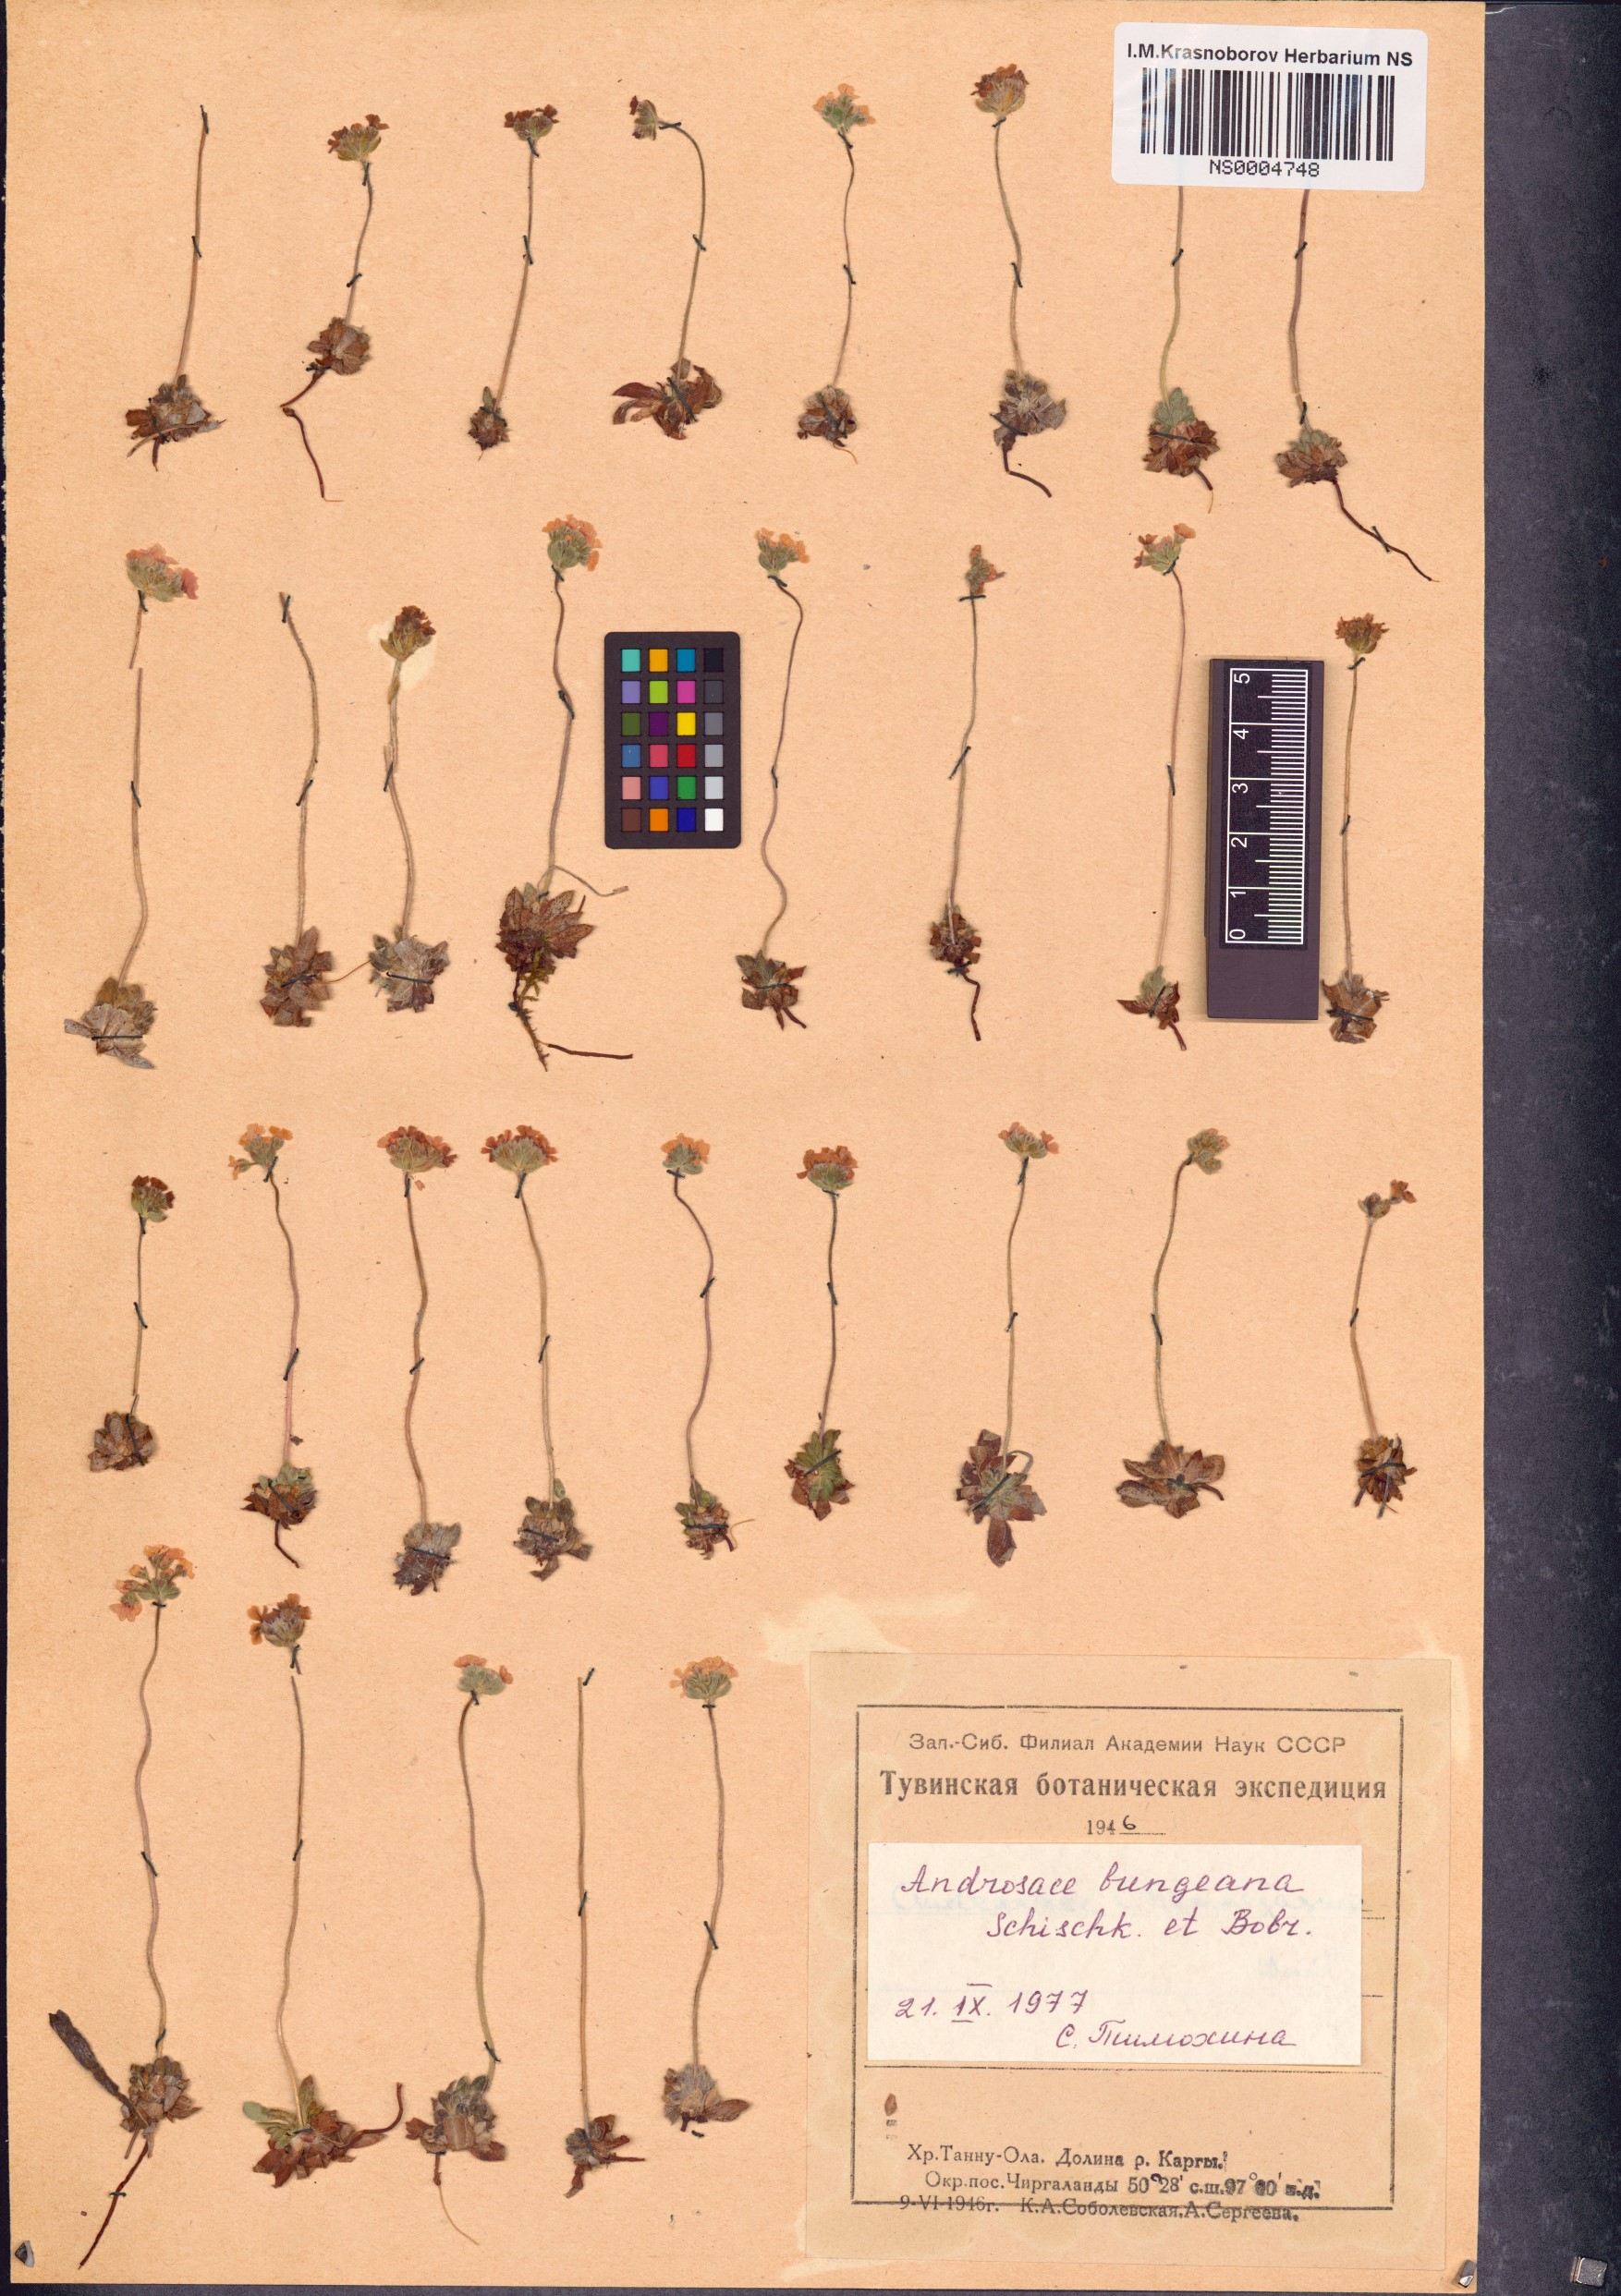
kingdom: Plantae
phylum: Tracheophyta
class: Magnoliopsida
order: Ericales
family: Primulaceae
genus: Androsace
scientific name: Androsace bungeana
